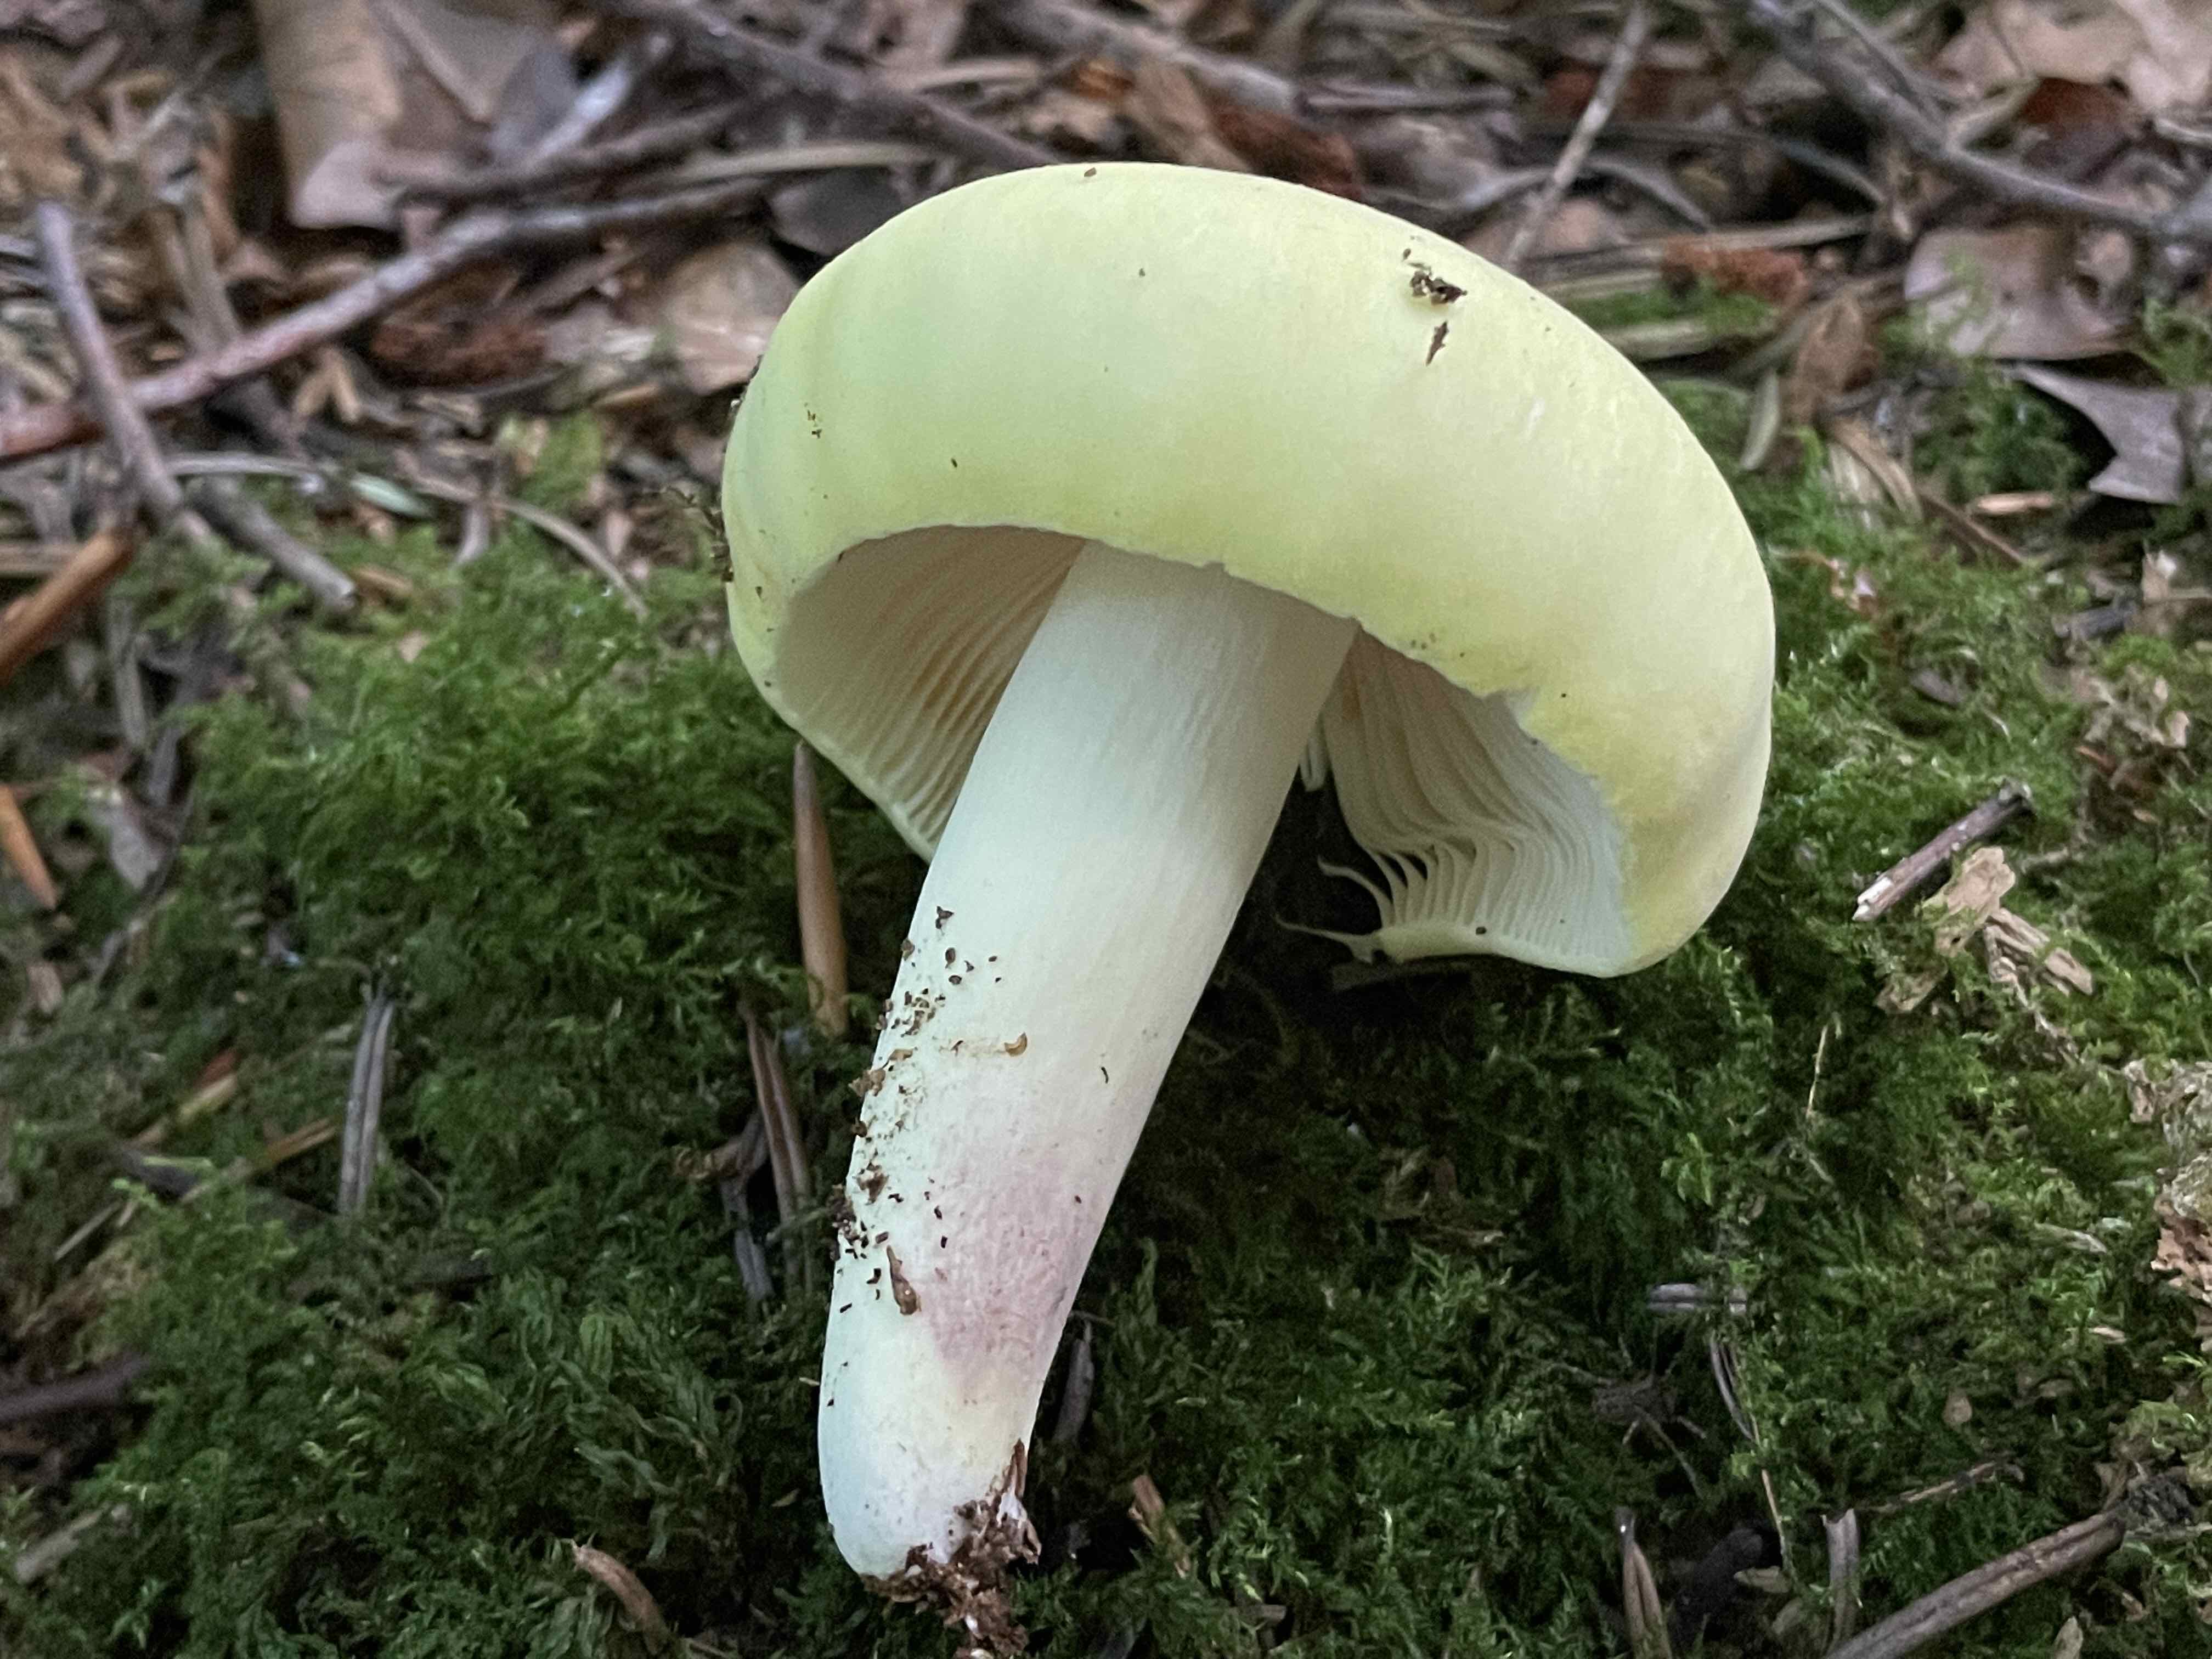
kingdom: Fungi
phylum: Basidiomycota
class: Agaricomycetes
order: Russulales
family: Russulaceae
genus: Russula
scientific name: Russula violeipes
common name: ferskengul skørhat
